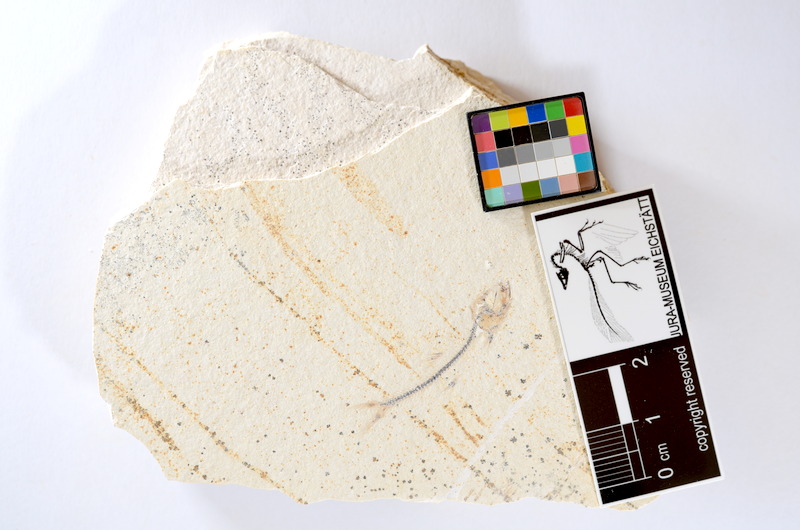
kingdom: Animalia
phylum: Chordata
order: Salmoniformes
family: Orthogonikleithridae
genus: Orthogonikleithrus
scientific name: Orthogonikleithrus hoelli
